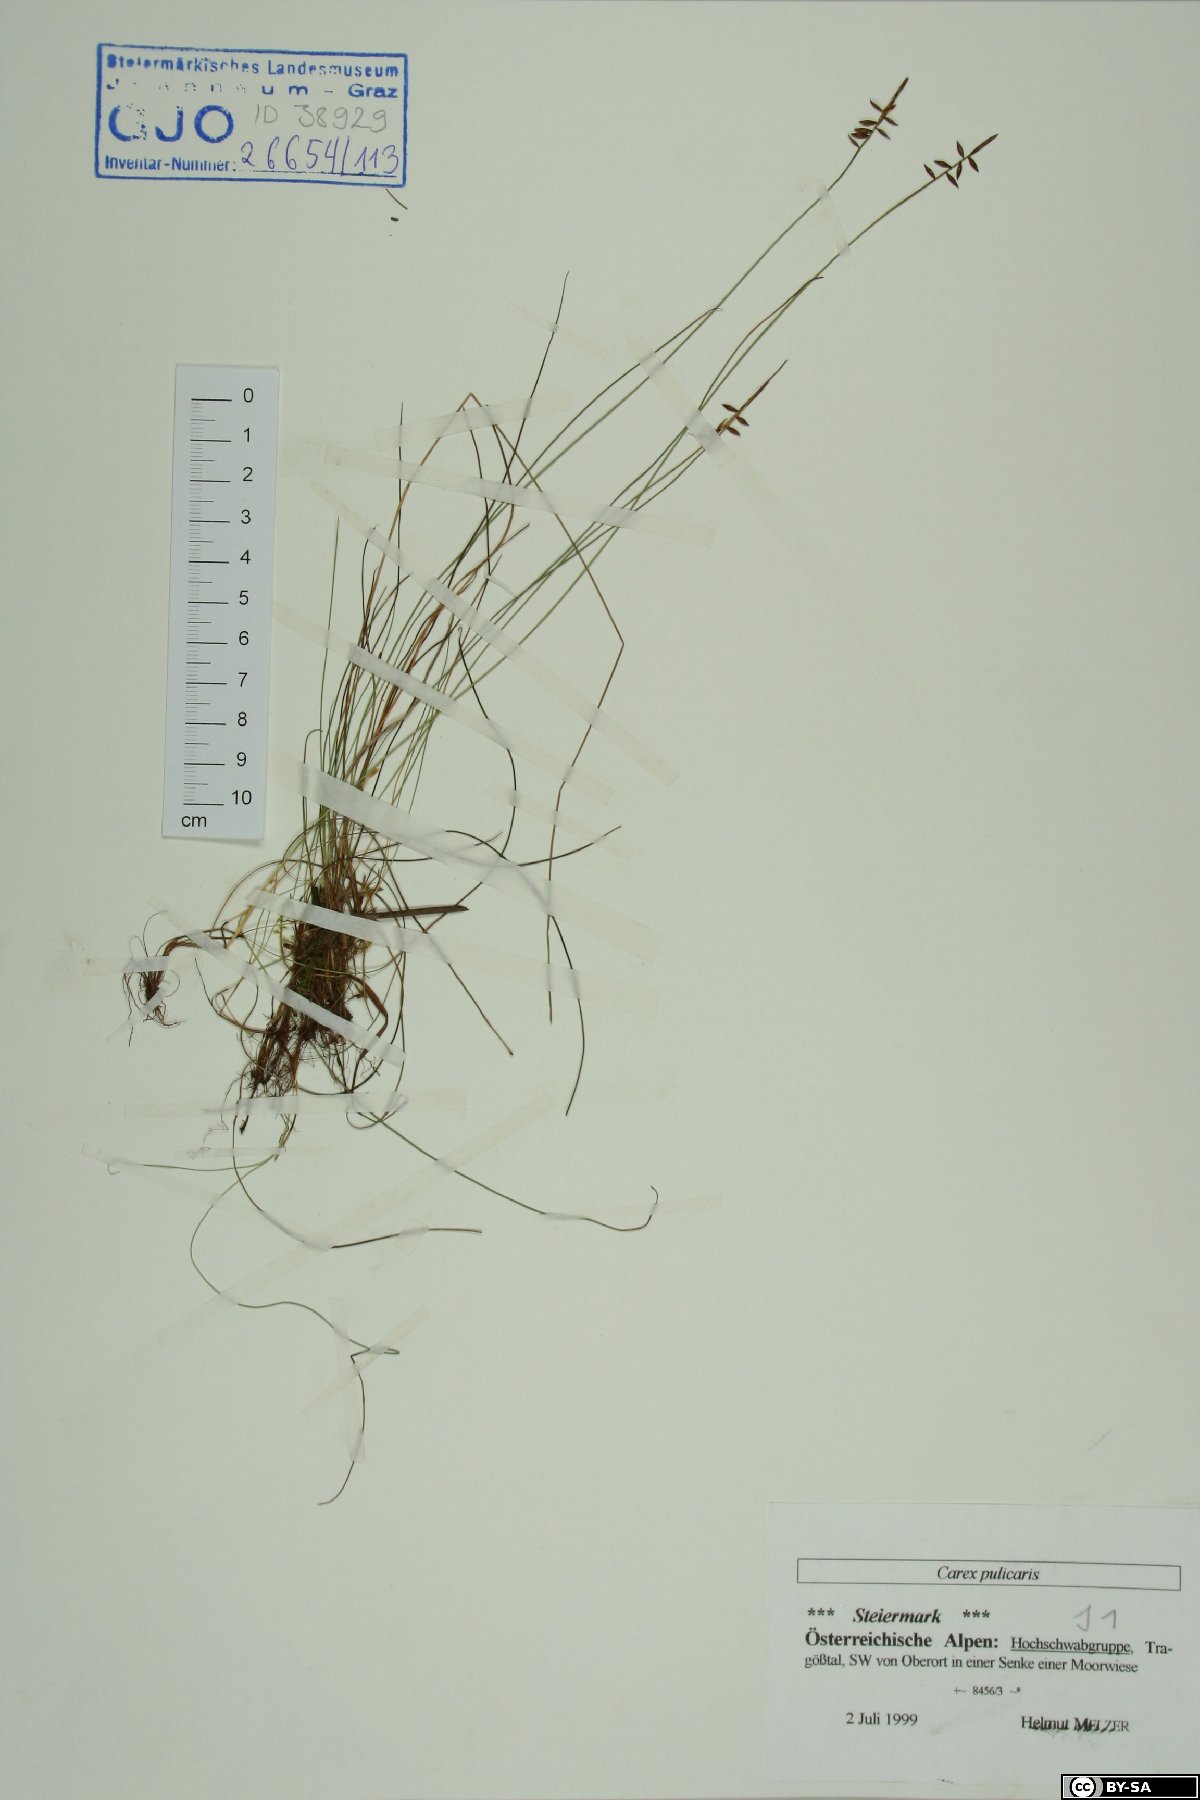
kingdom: Plantae
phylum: Tracheophyta
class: Liliopsida
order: Poales
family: Cyperaceae
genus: Carex
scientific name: Carex pulicaris
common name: Flea sedge
